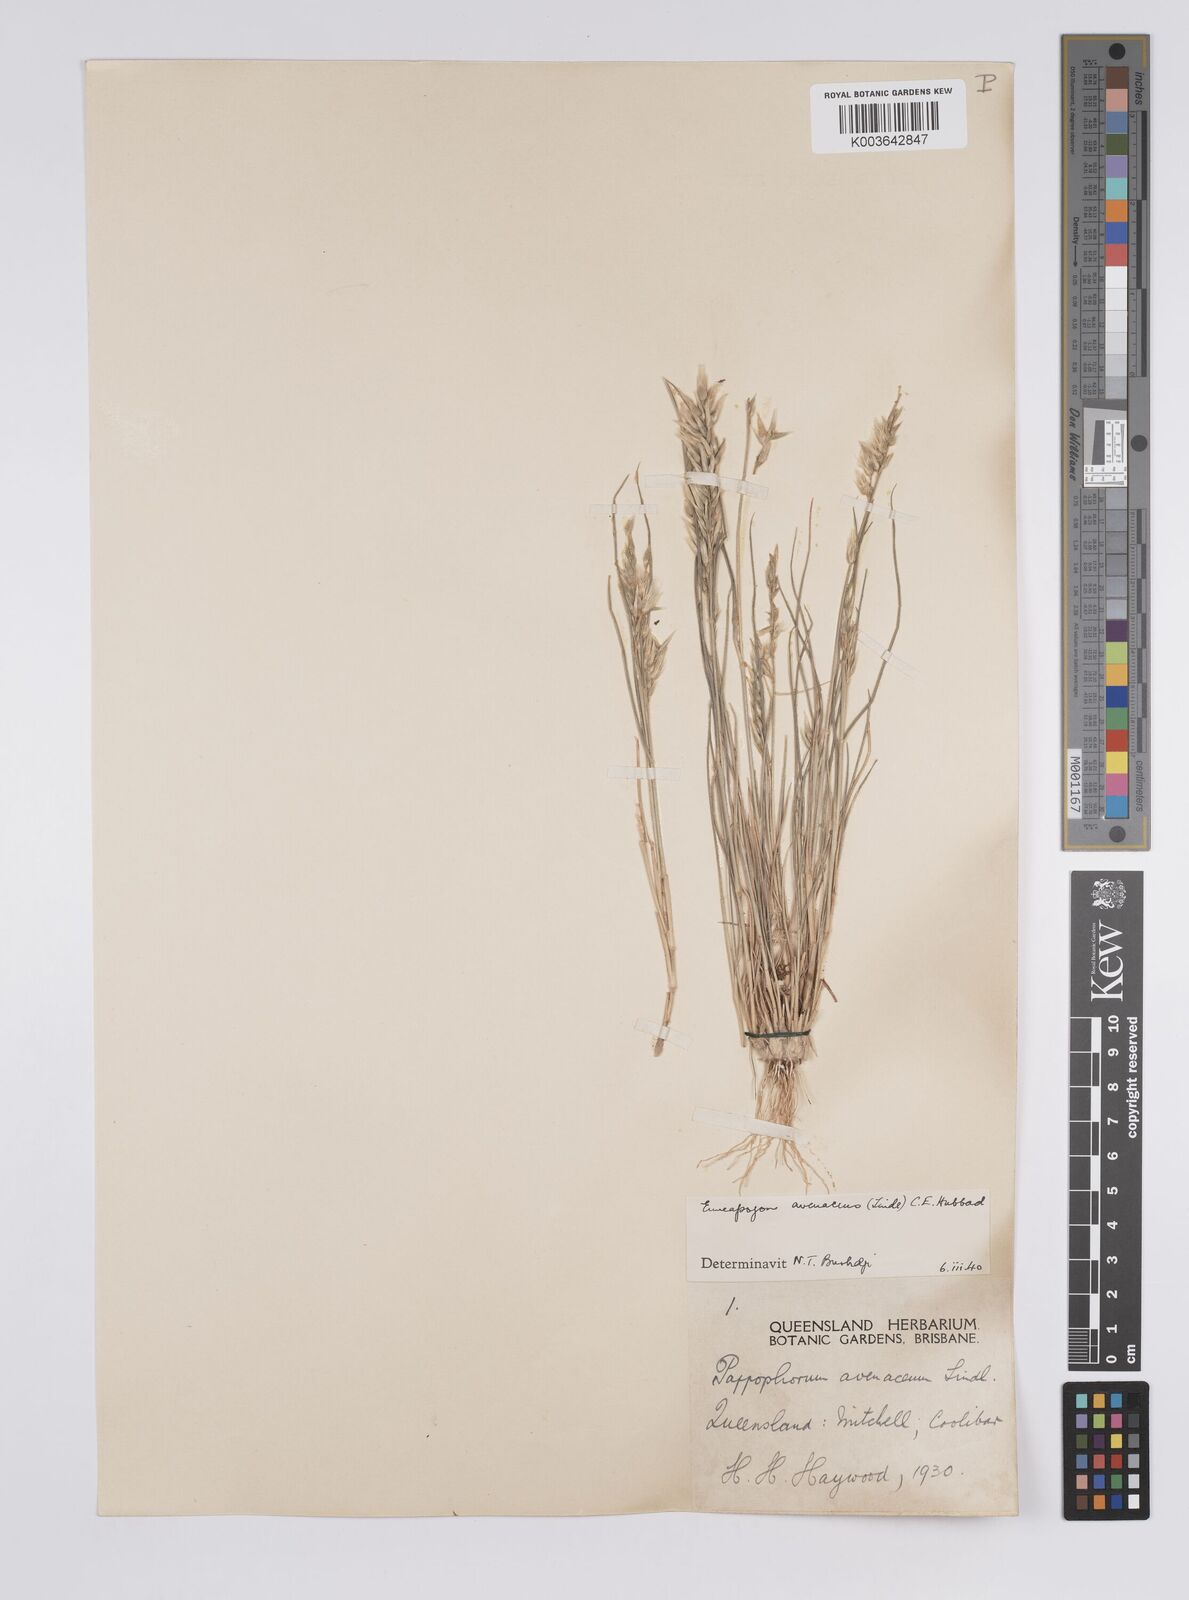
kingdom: Plantae
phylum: Tracheophyta
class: Liliopsida
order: Poales
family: Poaceae
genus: Enneapogon
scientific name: Enneapogon avenaceus
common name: Hairy oat grass
